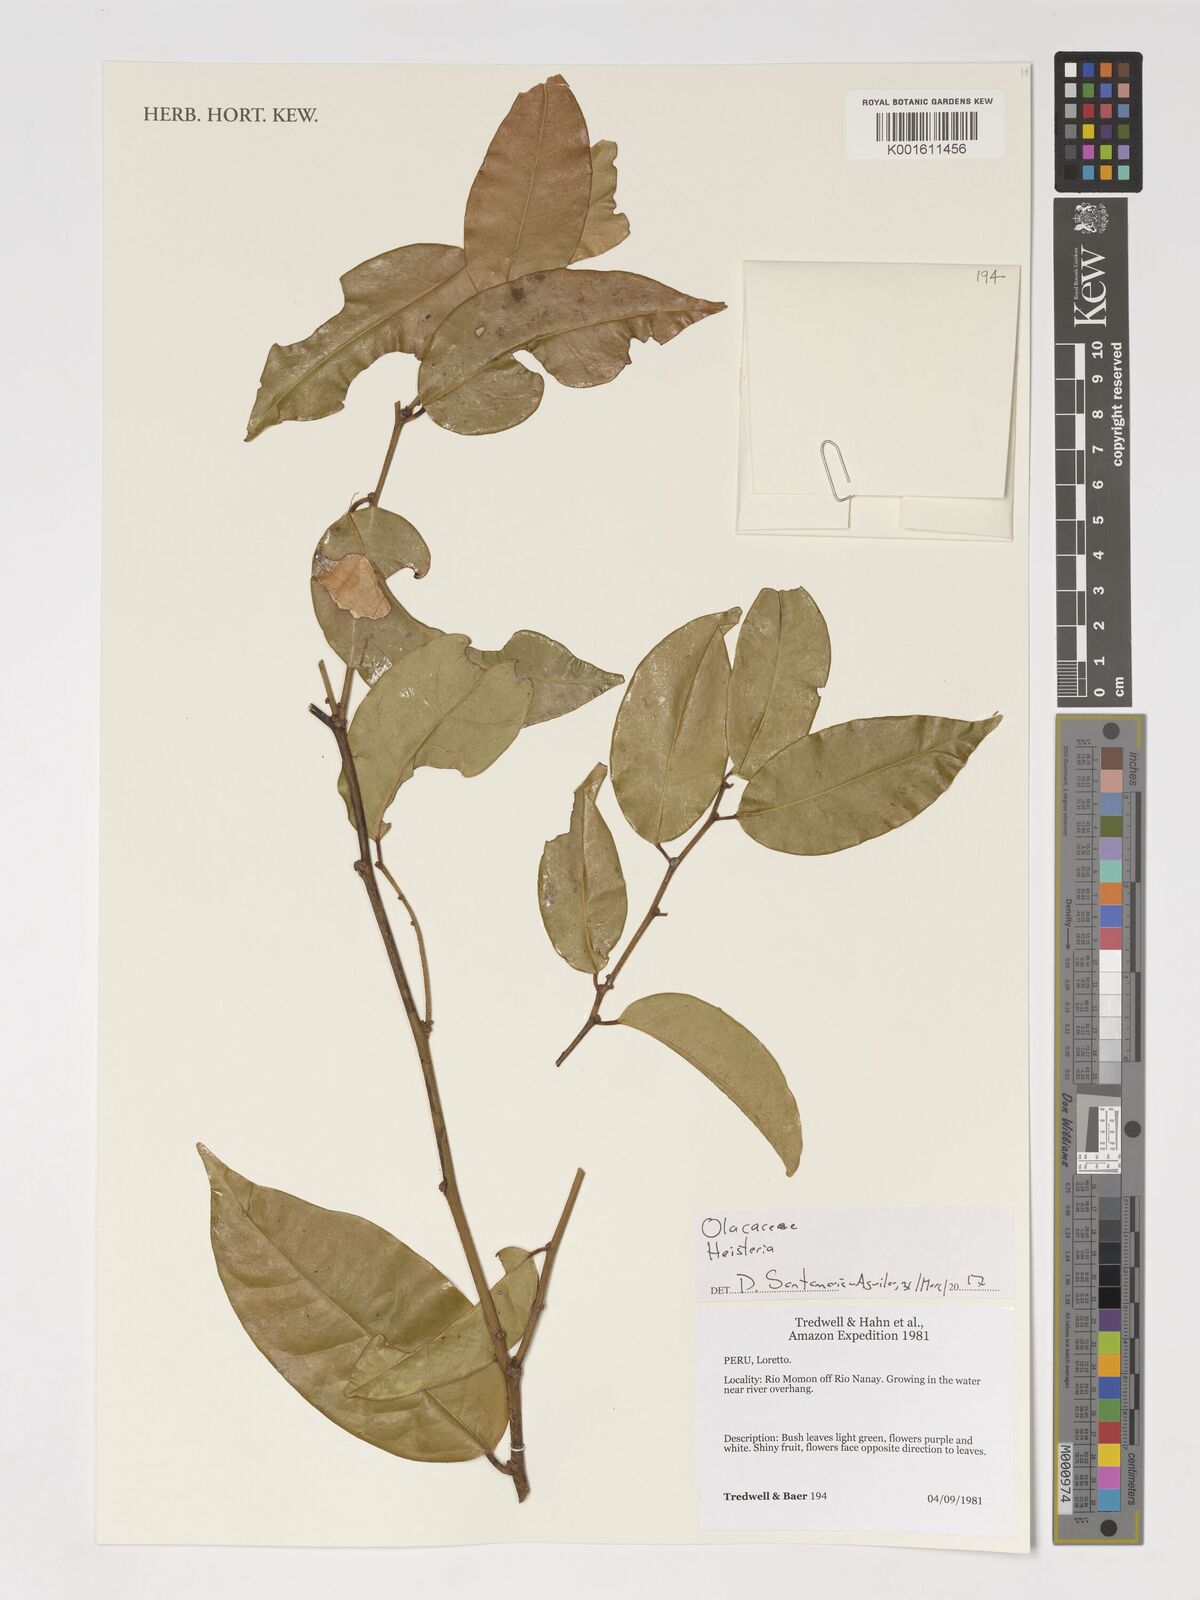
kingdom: Plantae
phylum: Tracheophyta
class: Magnoliopsida
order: Santalales
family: Erythropalaceae
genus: Heisteria
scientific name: Heisteria
